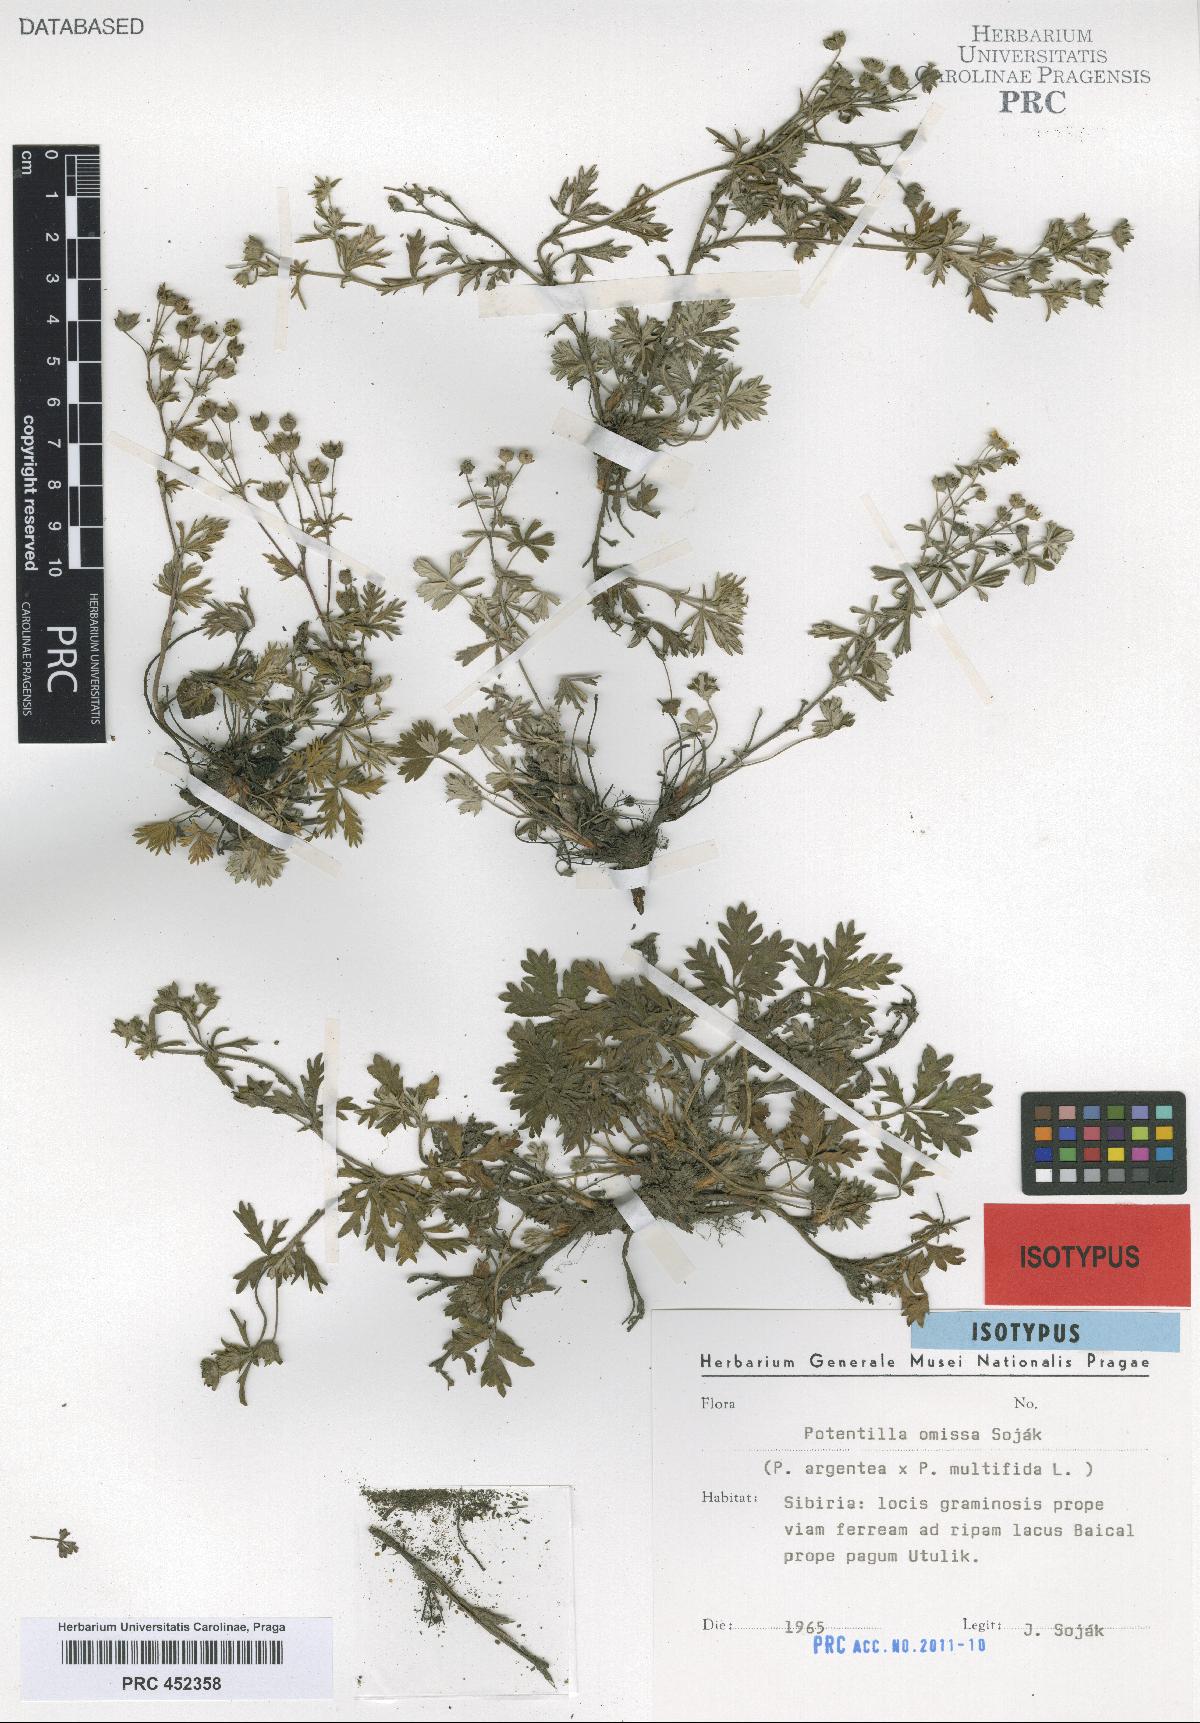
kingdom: Plantae
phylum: Tracheophyta
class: Magnoliopsida
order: Rosales
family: Rosaceae
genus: Potentilla
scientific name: Potentilla omissa
